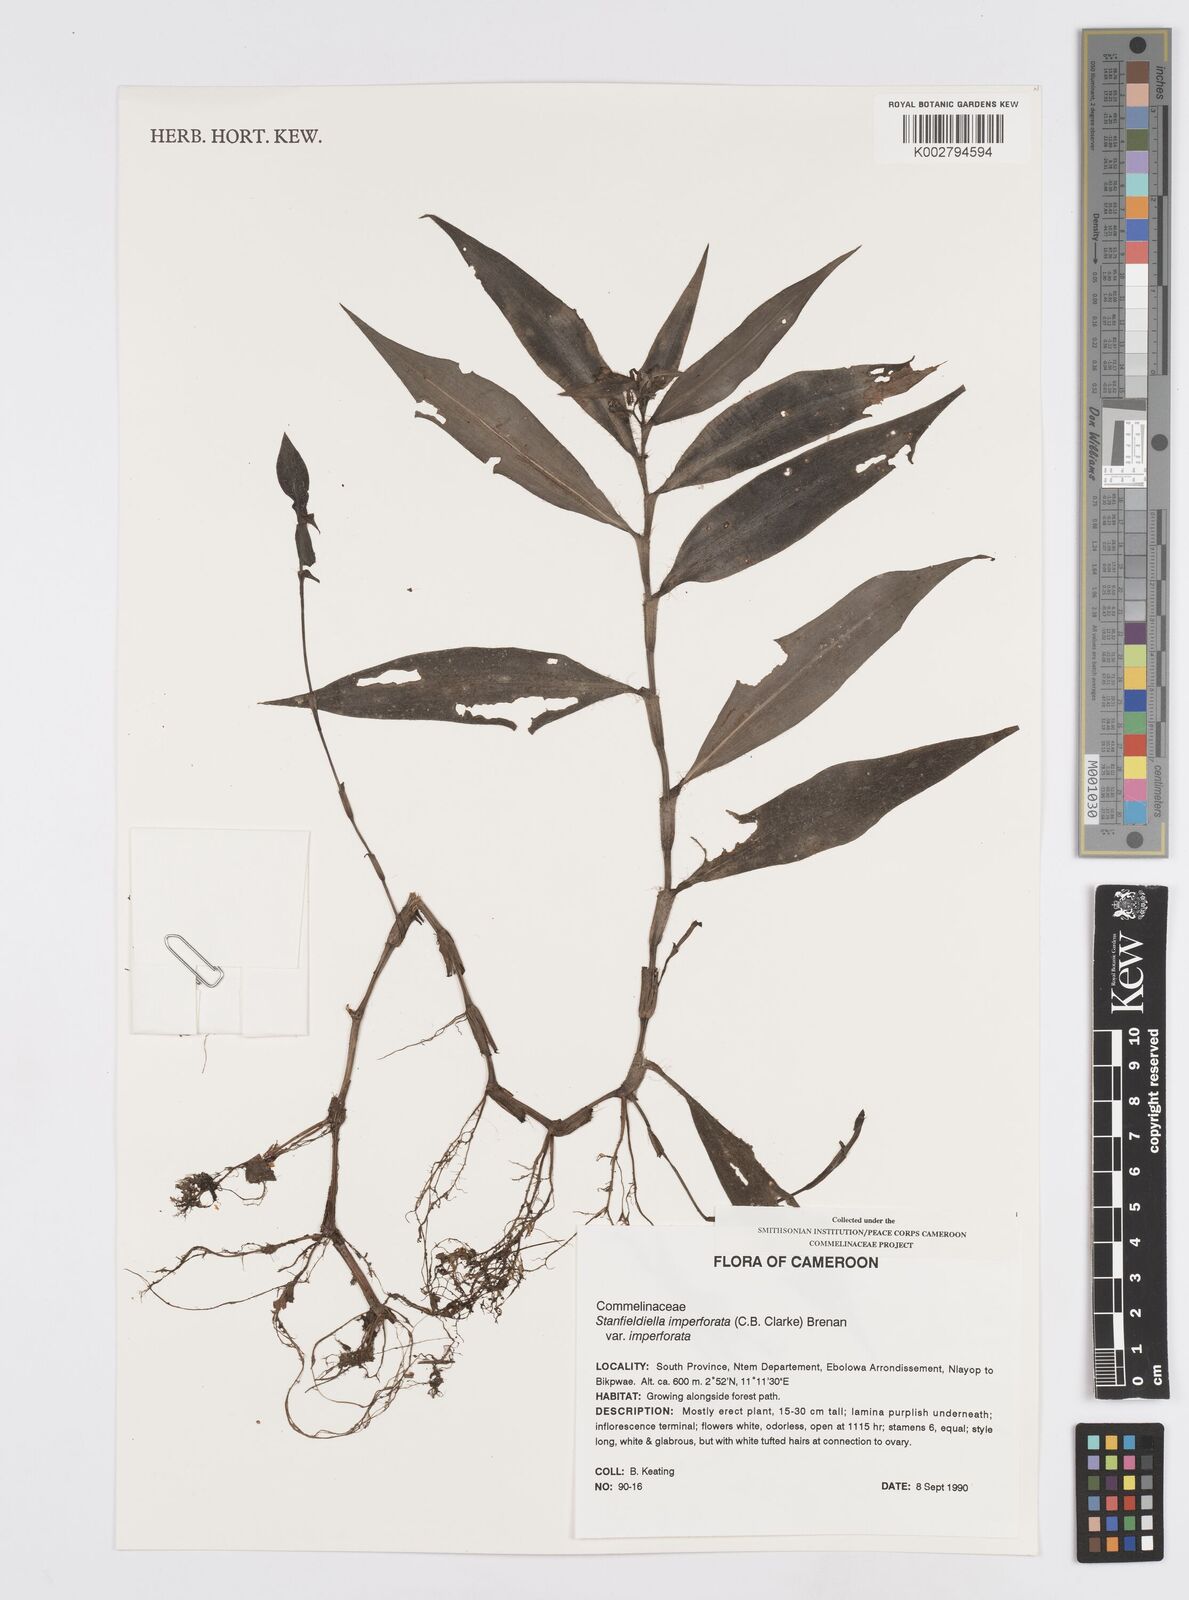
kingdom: Plantae
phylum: Tracheophyta
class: Liliopsida
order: Commelinales
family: Commelinaceae
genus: Stanfieldiella
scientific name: Stanfieldiella imperforata
